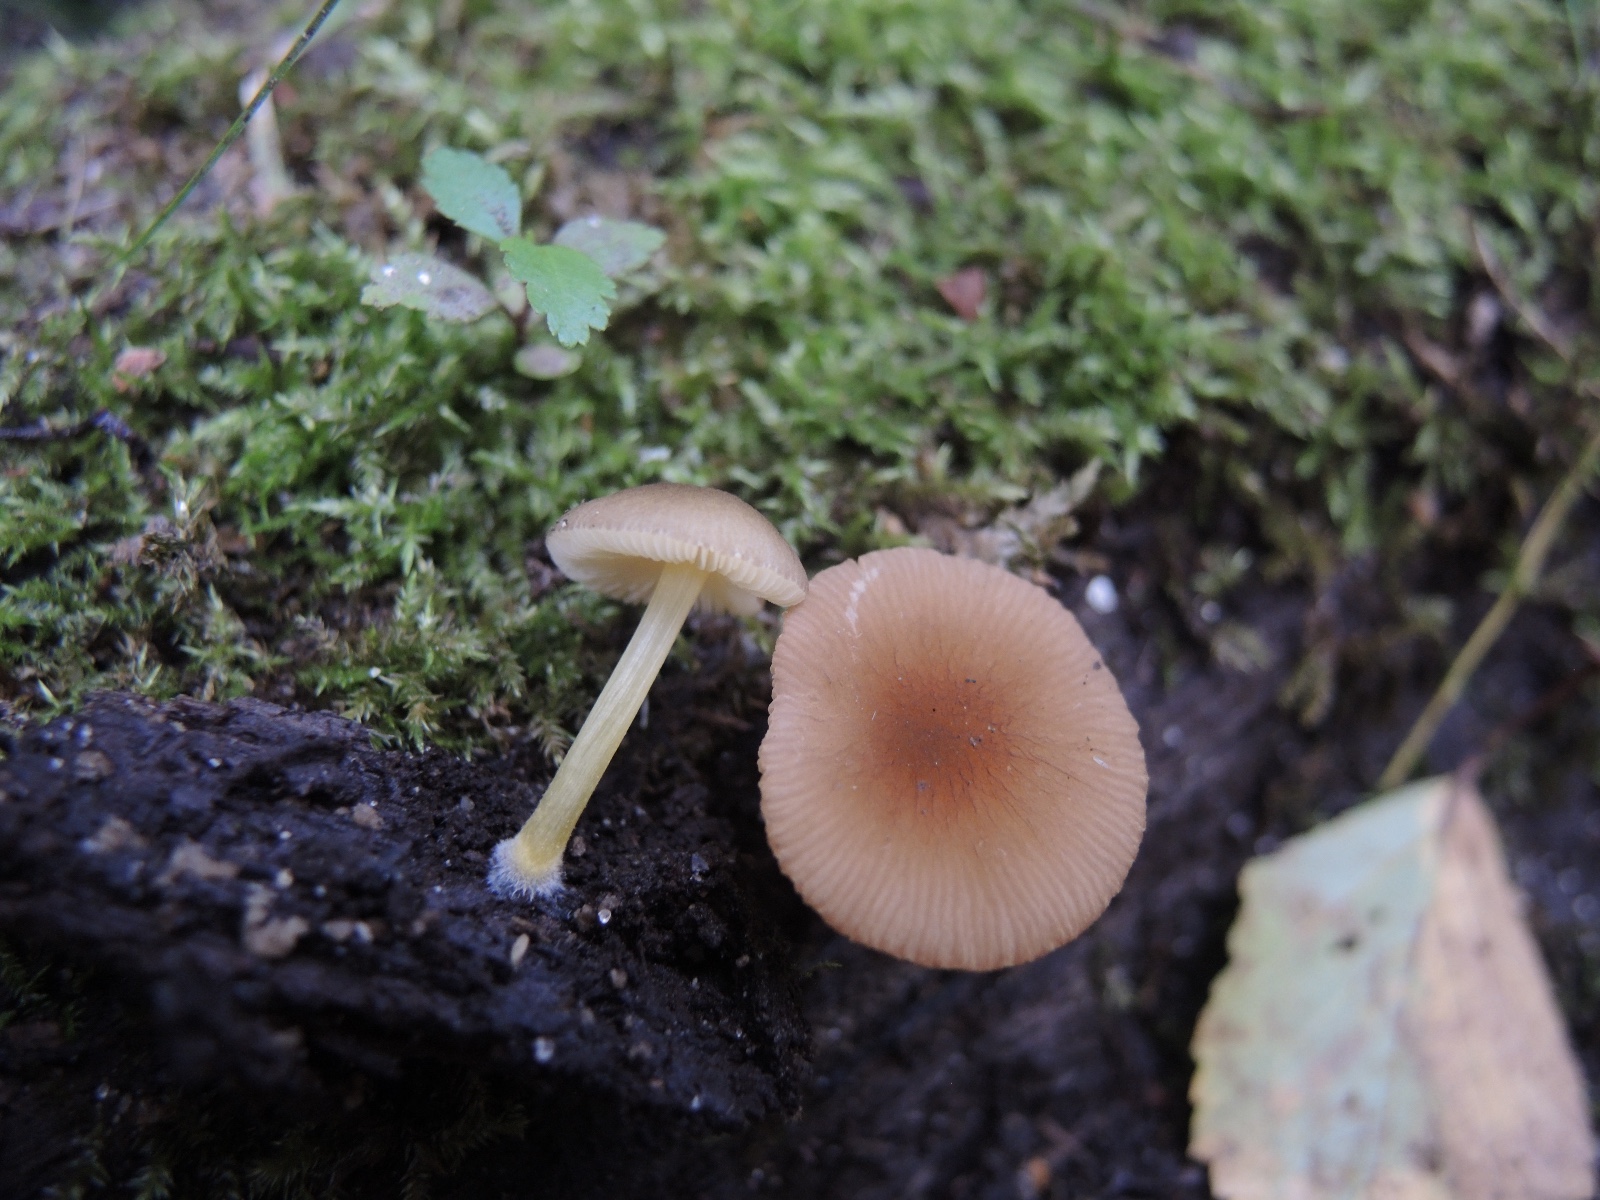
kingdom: Fungi
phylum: Basidiomycota
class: Agaricomycetes
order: Agaricales
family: Pluteaceae
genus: Pluteus
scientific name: Pluteus romellii
